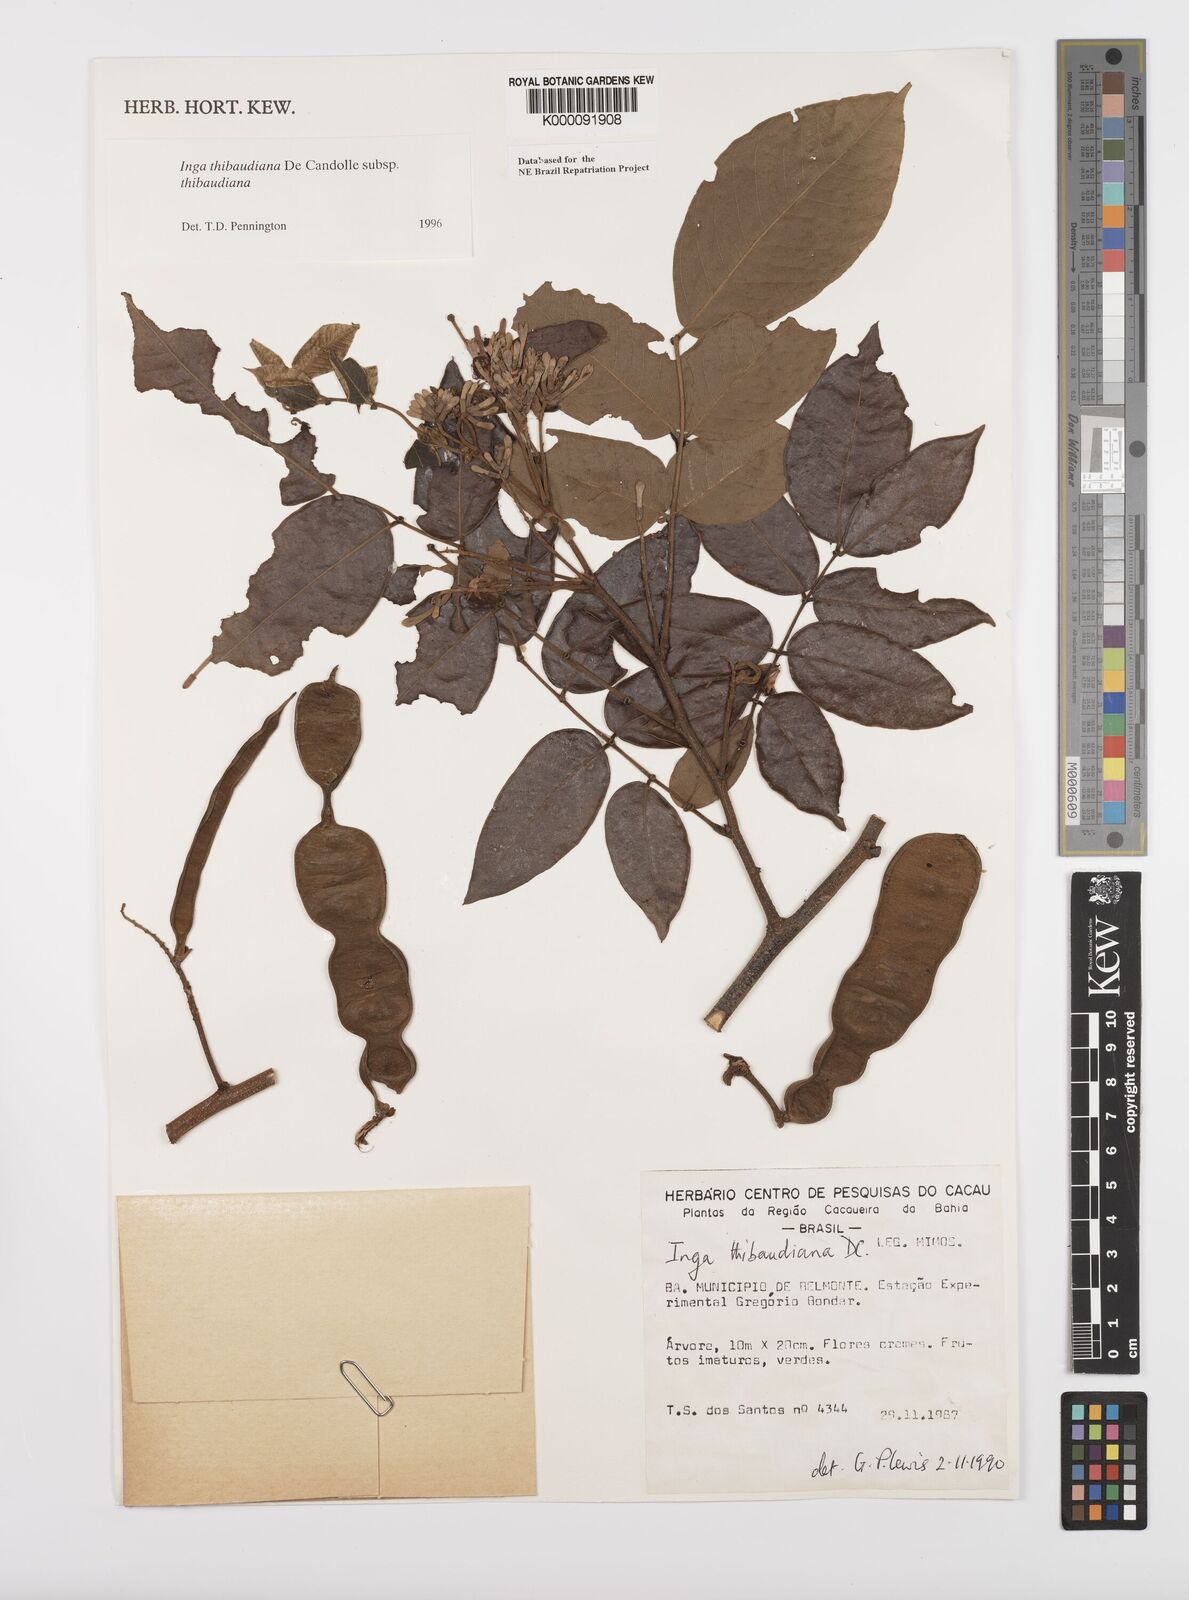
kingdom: Plantae
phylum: Tracheophyta
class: Magnoliopsida
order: Fabales
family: Fabaceae
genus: Inga
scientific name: Inga thibaudiana
